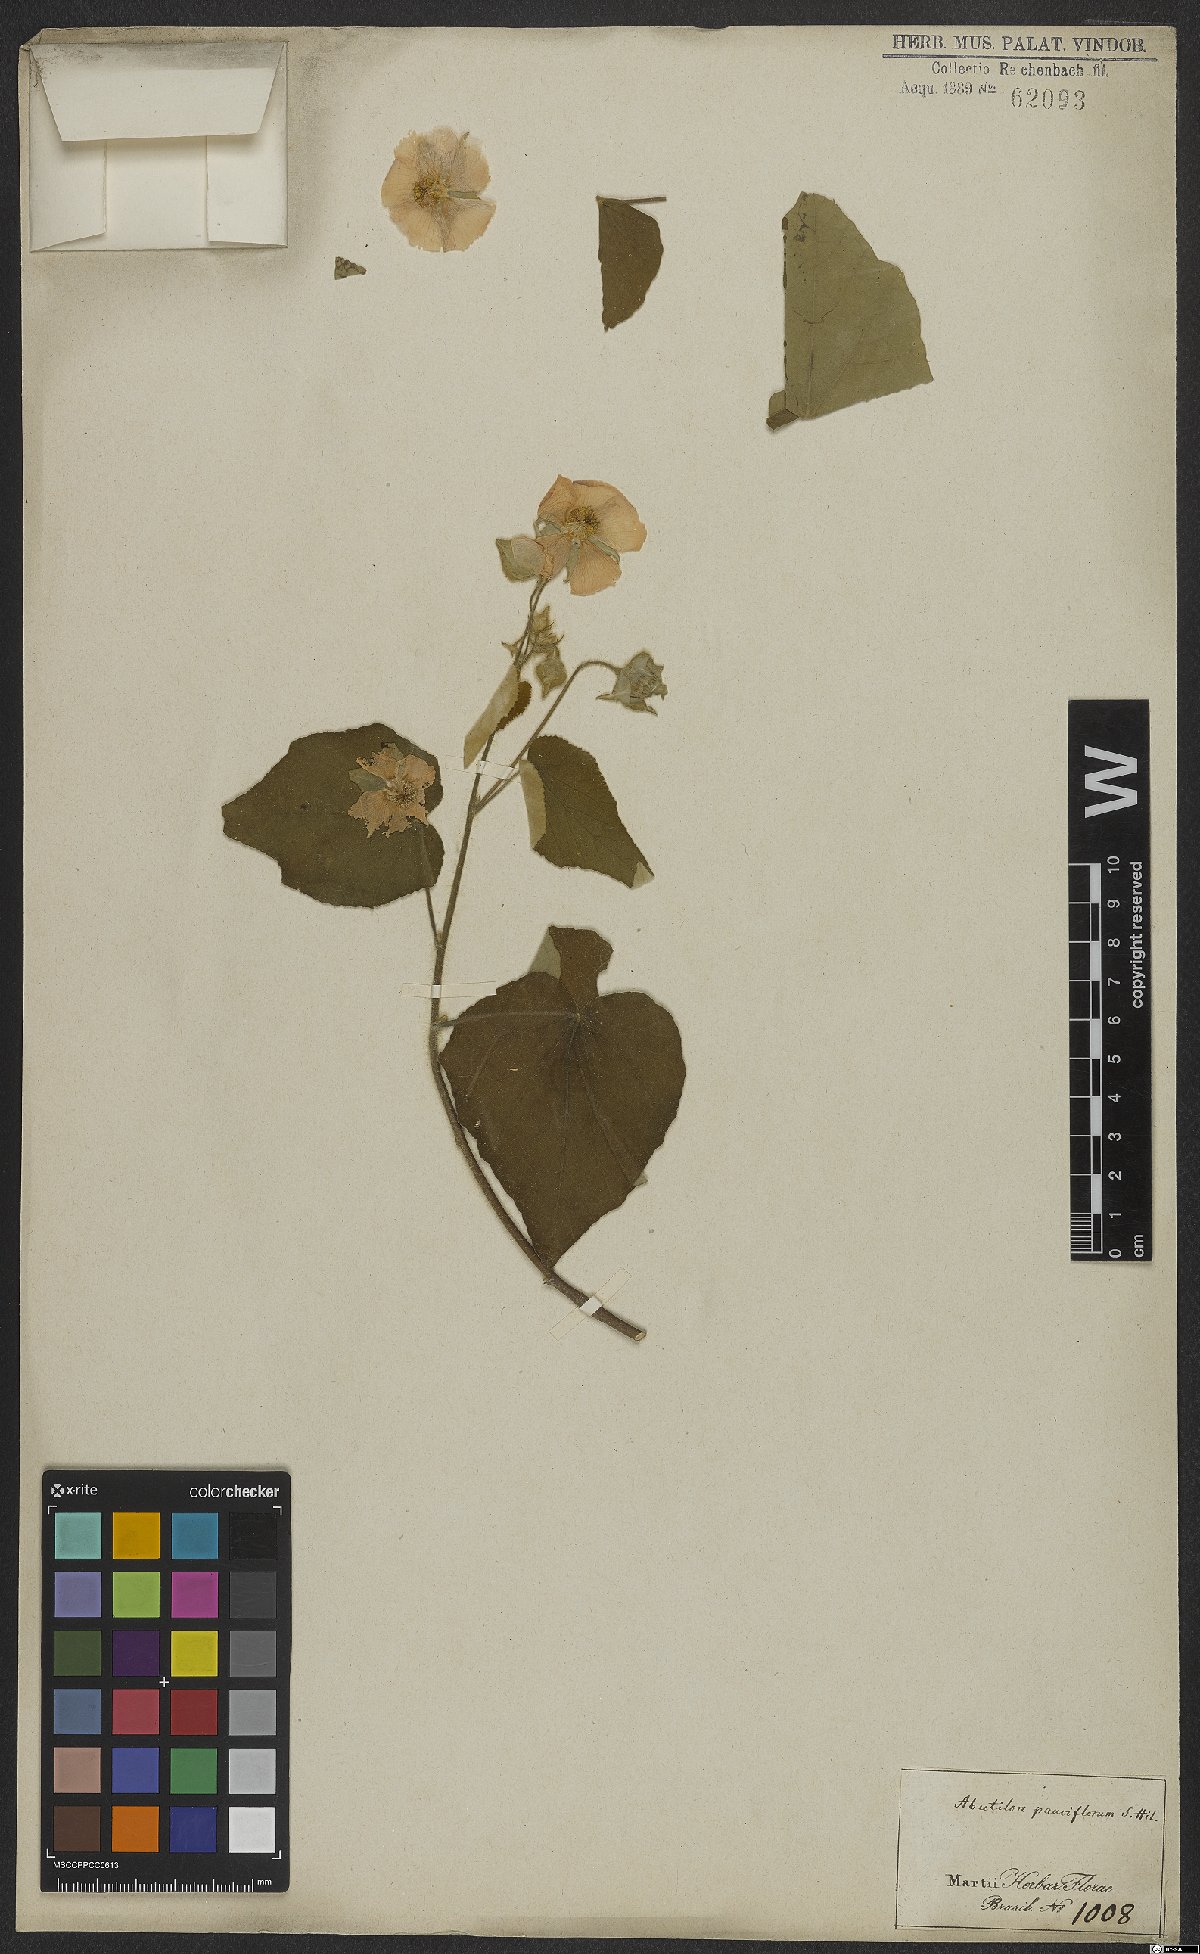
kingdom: Plantae
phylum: Tracheophyta
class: Magnoliopsida
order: Malvales
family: Malvaceae
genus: Callianthe
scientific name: Callianthe pauciflora
